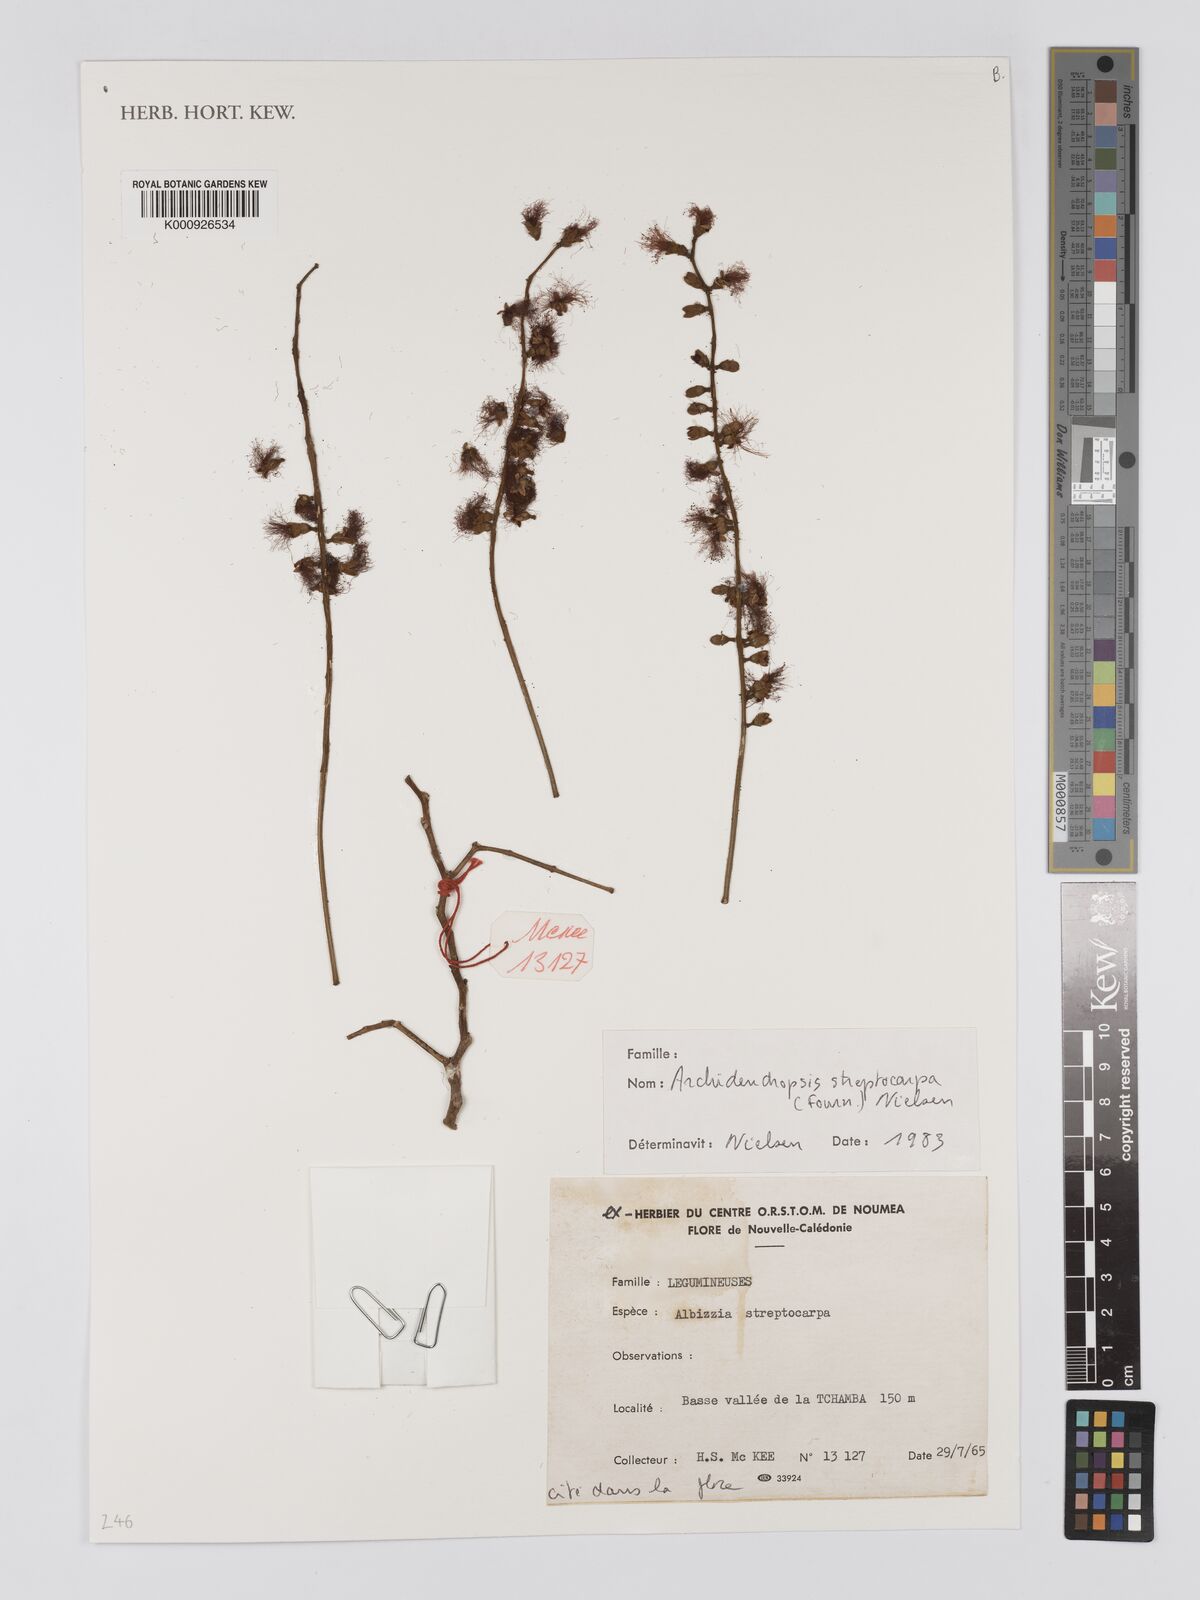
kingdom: Plantae
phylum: Tracheophyta
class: Magnoliopsida
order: Fabales
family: Fabaceae
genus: Archidendropsis
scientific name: Archidendropsis streptocarpa
